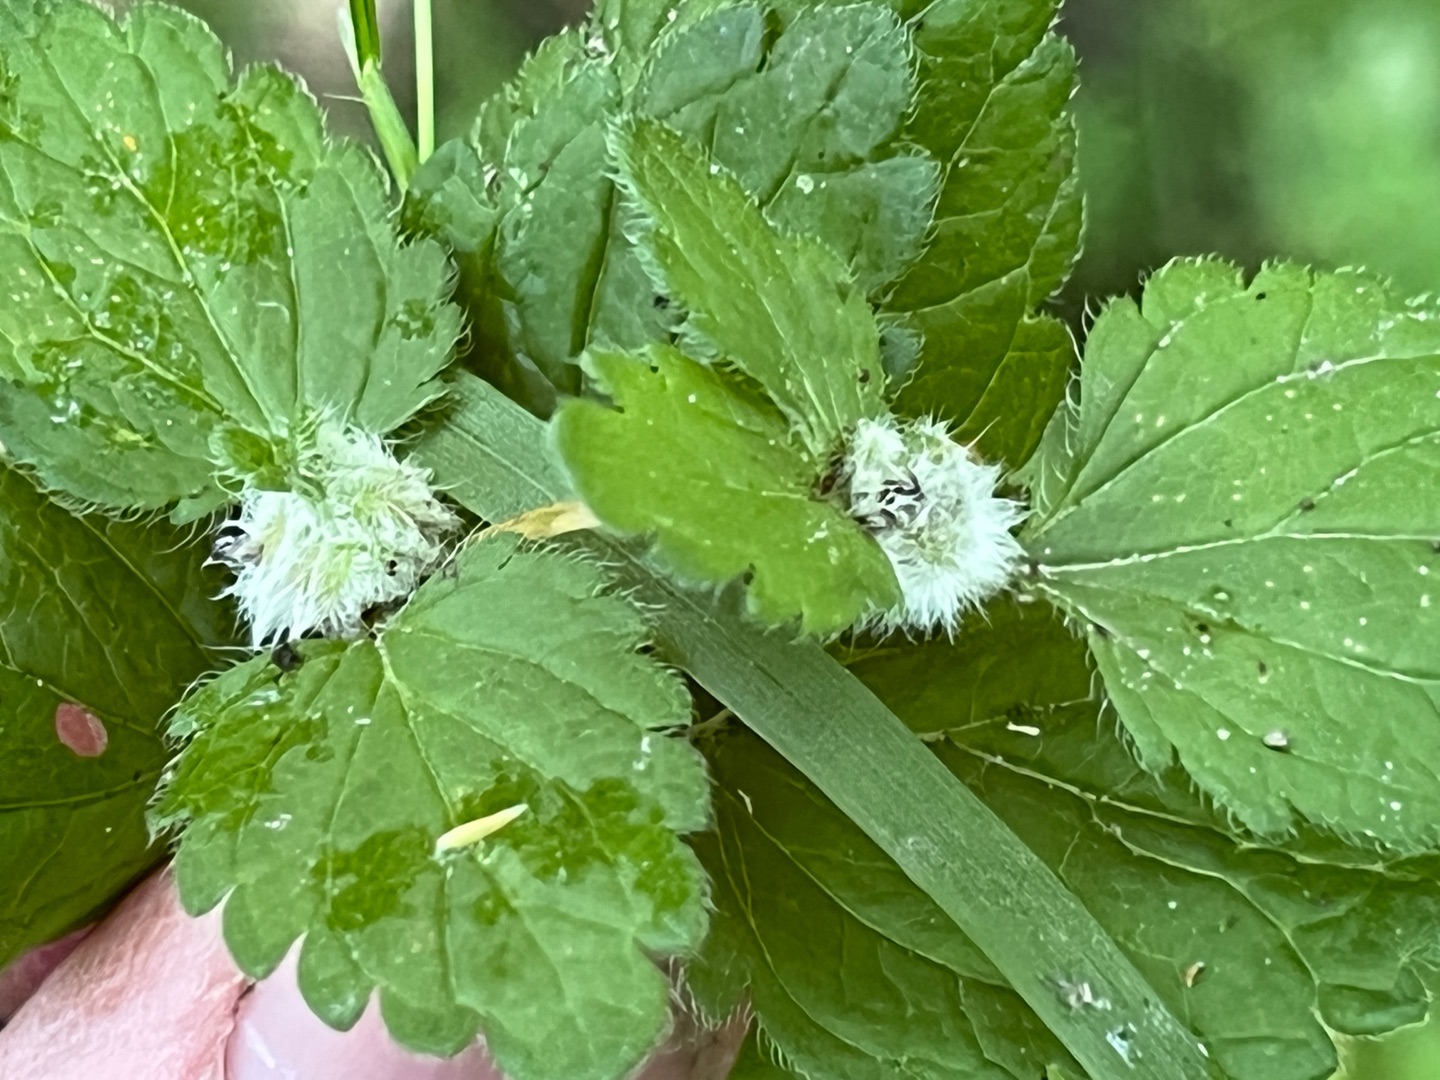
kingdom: Animalia
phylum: Arthropoda
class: Insecta
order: Diptera
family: Cecidomyiidae
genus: Jaapiella
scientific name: Jaapiella veronicae
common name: Ærenprisgalmyg
